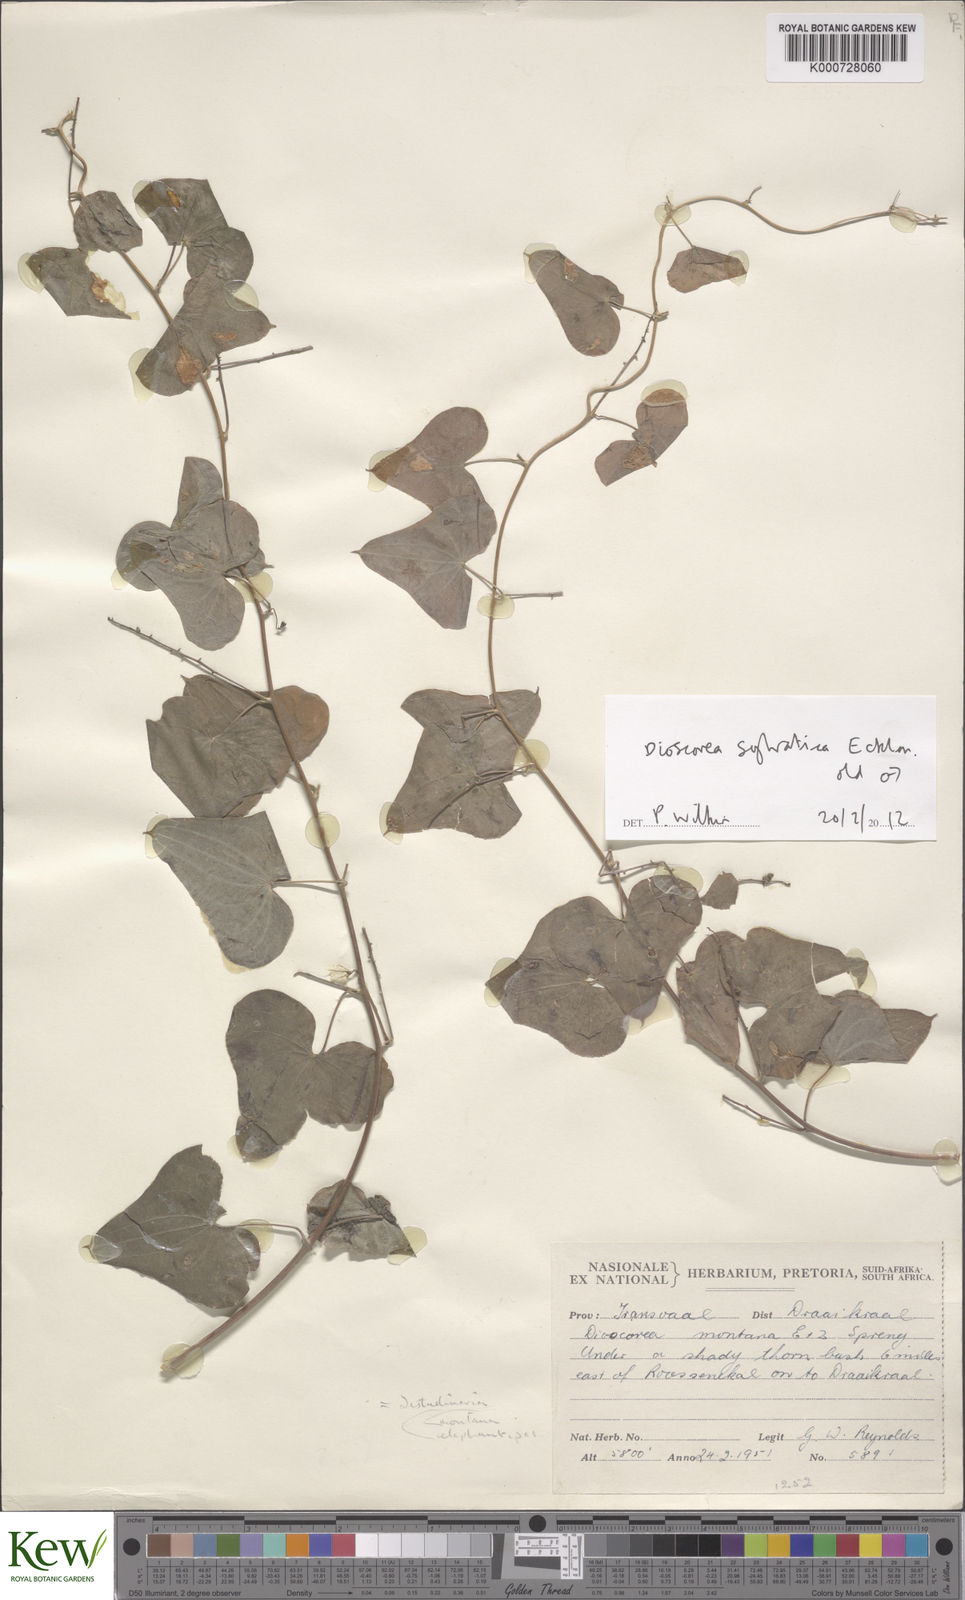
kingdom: Plantae
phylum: Tracheophyta
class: Liliopsida
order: Dioscoreales
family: Dioscoreaceae
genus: Dioscorea
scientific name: Dioscorea sylvatica
